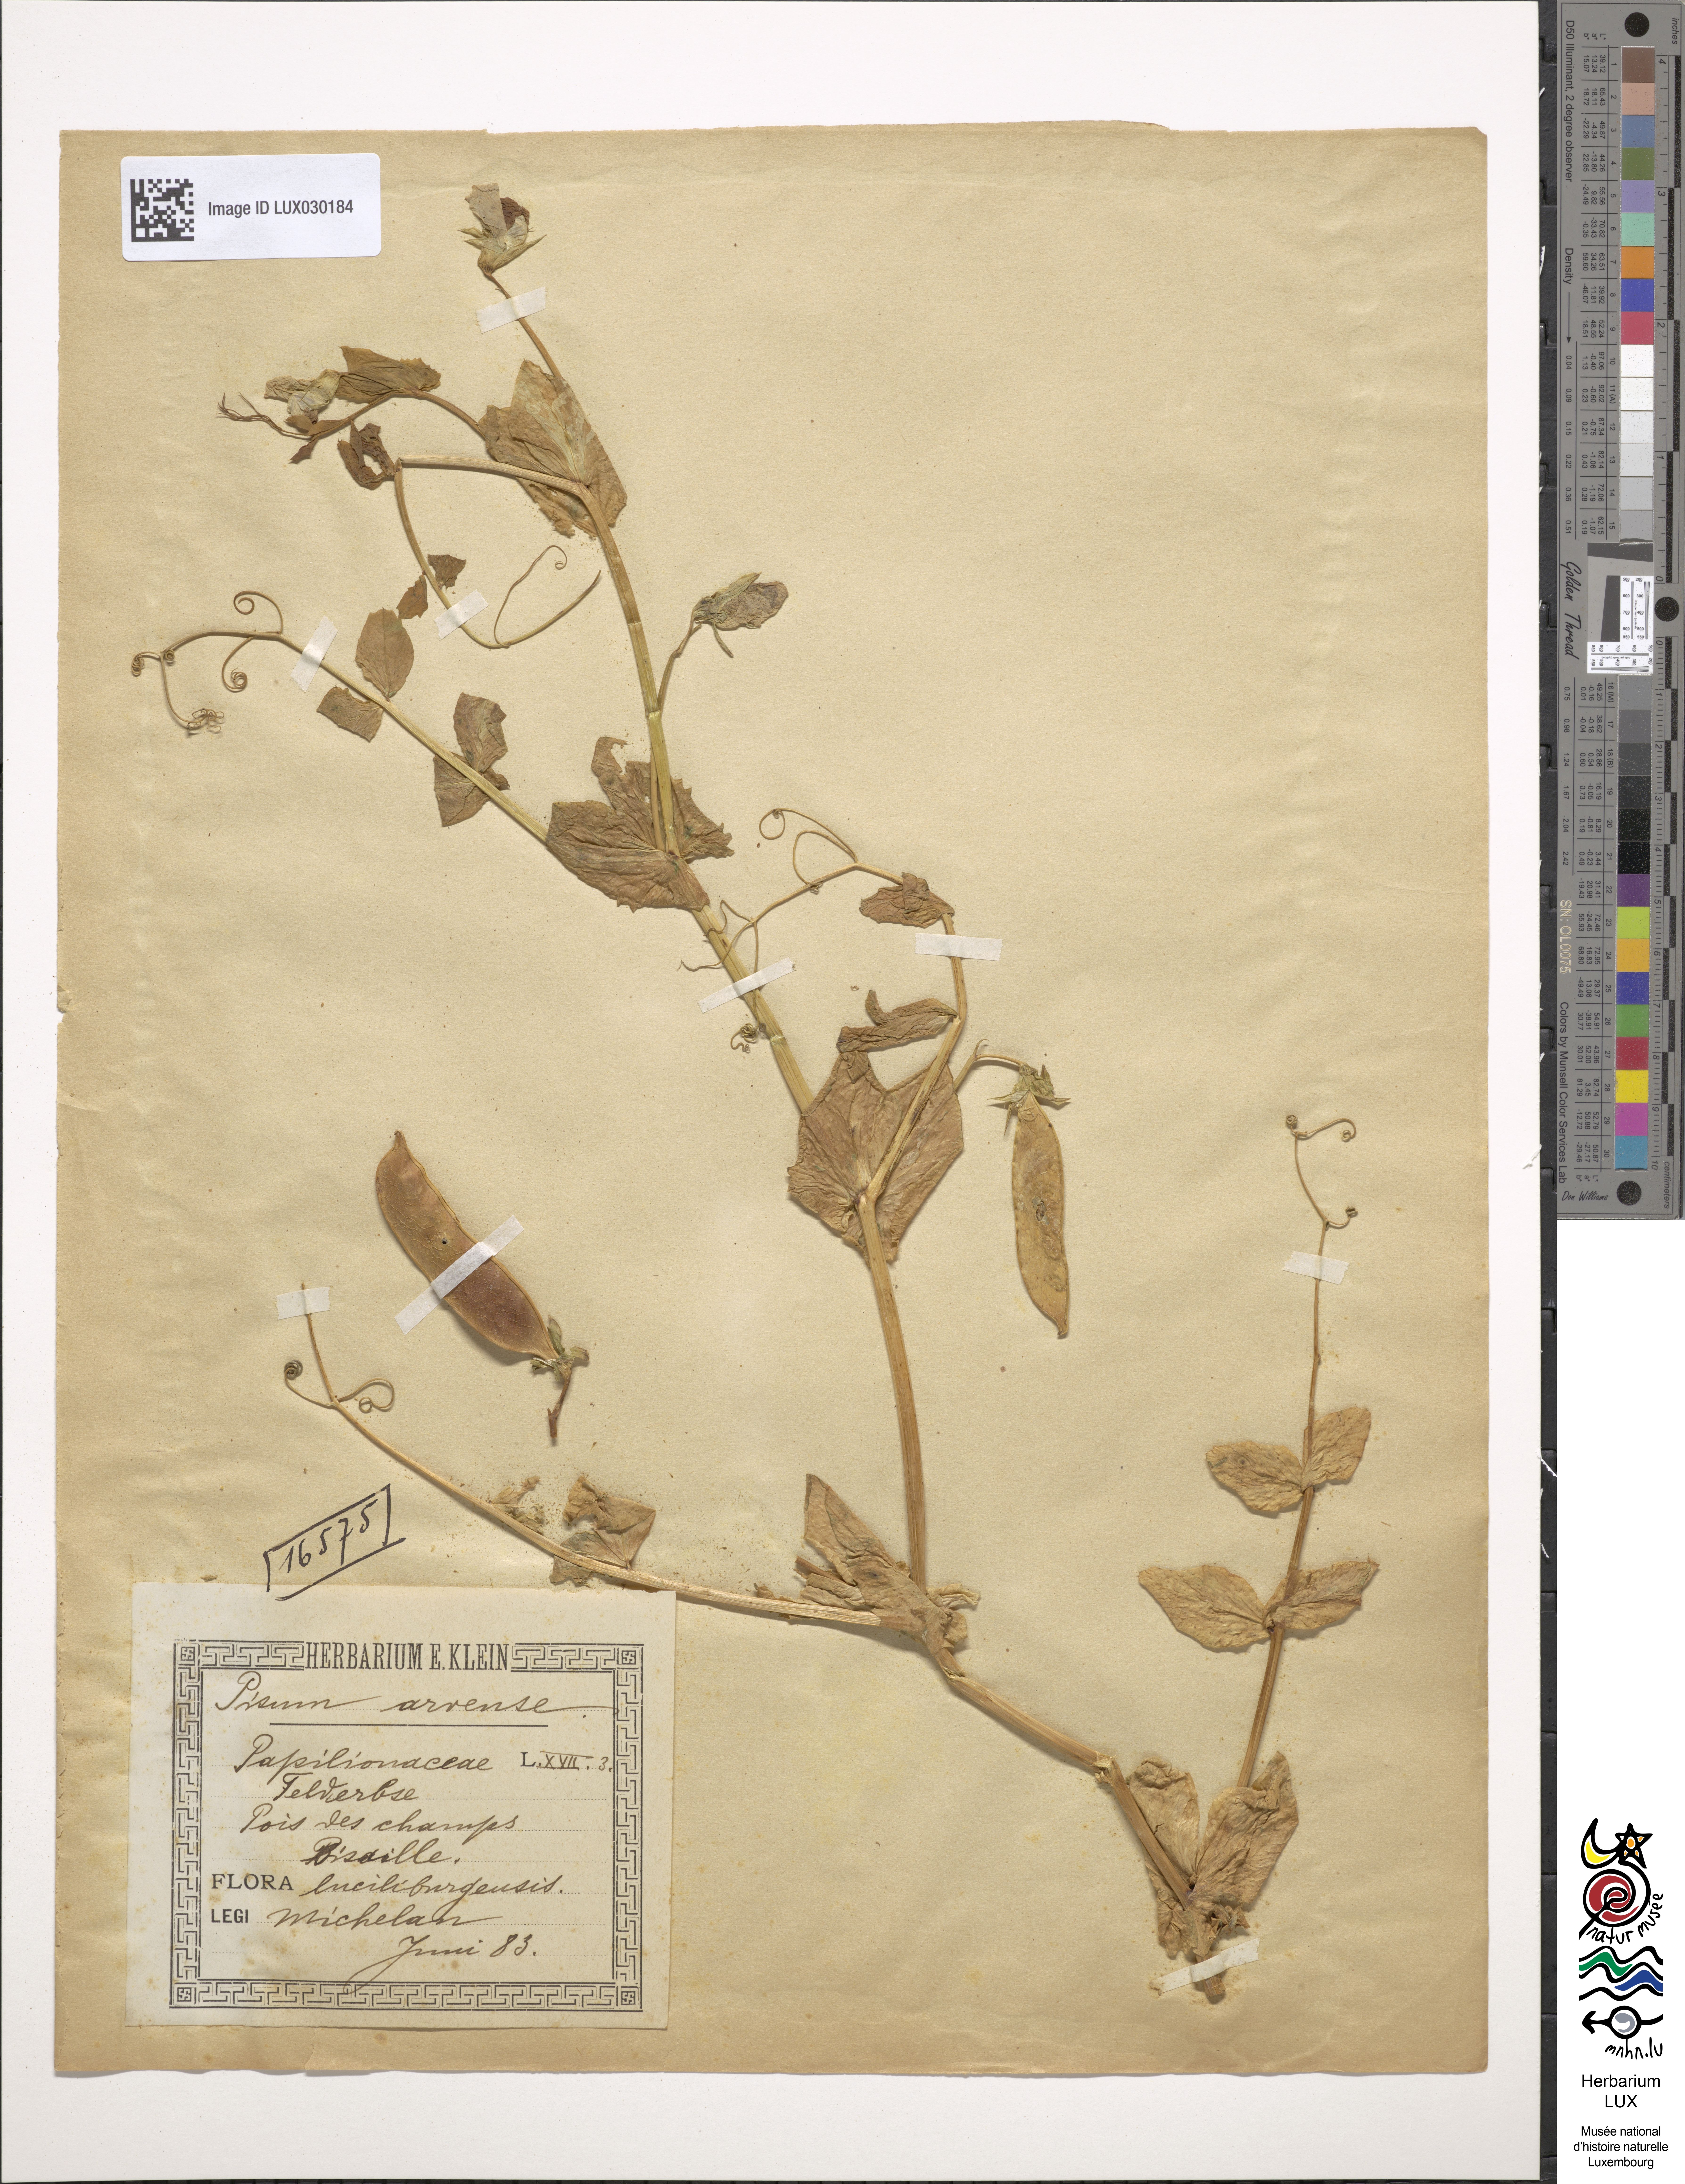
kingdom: Plantae
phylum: Tracheophyta
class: Magnoliopsida
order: Fabales
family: Fabaceae
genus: Lathyrus
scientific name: Lathyrus oleraceus
